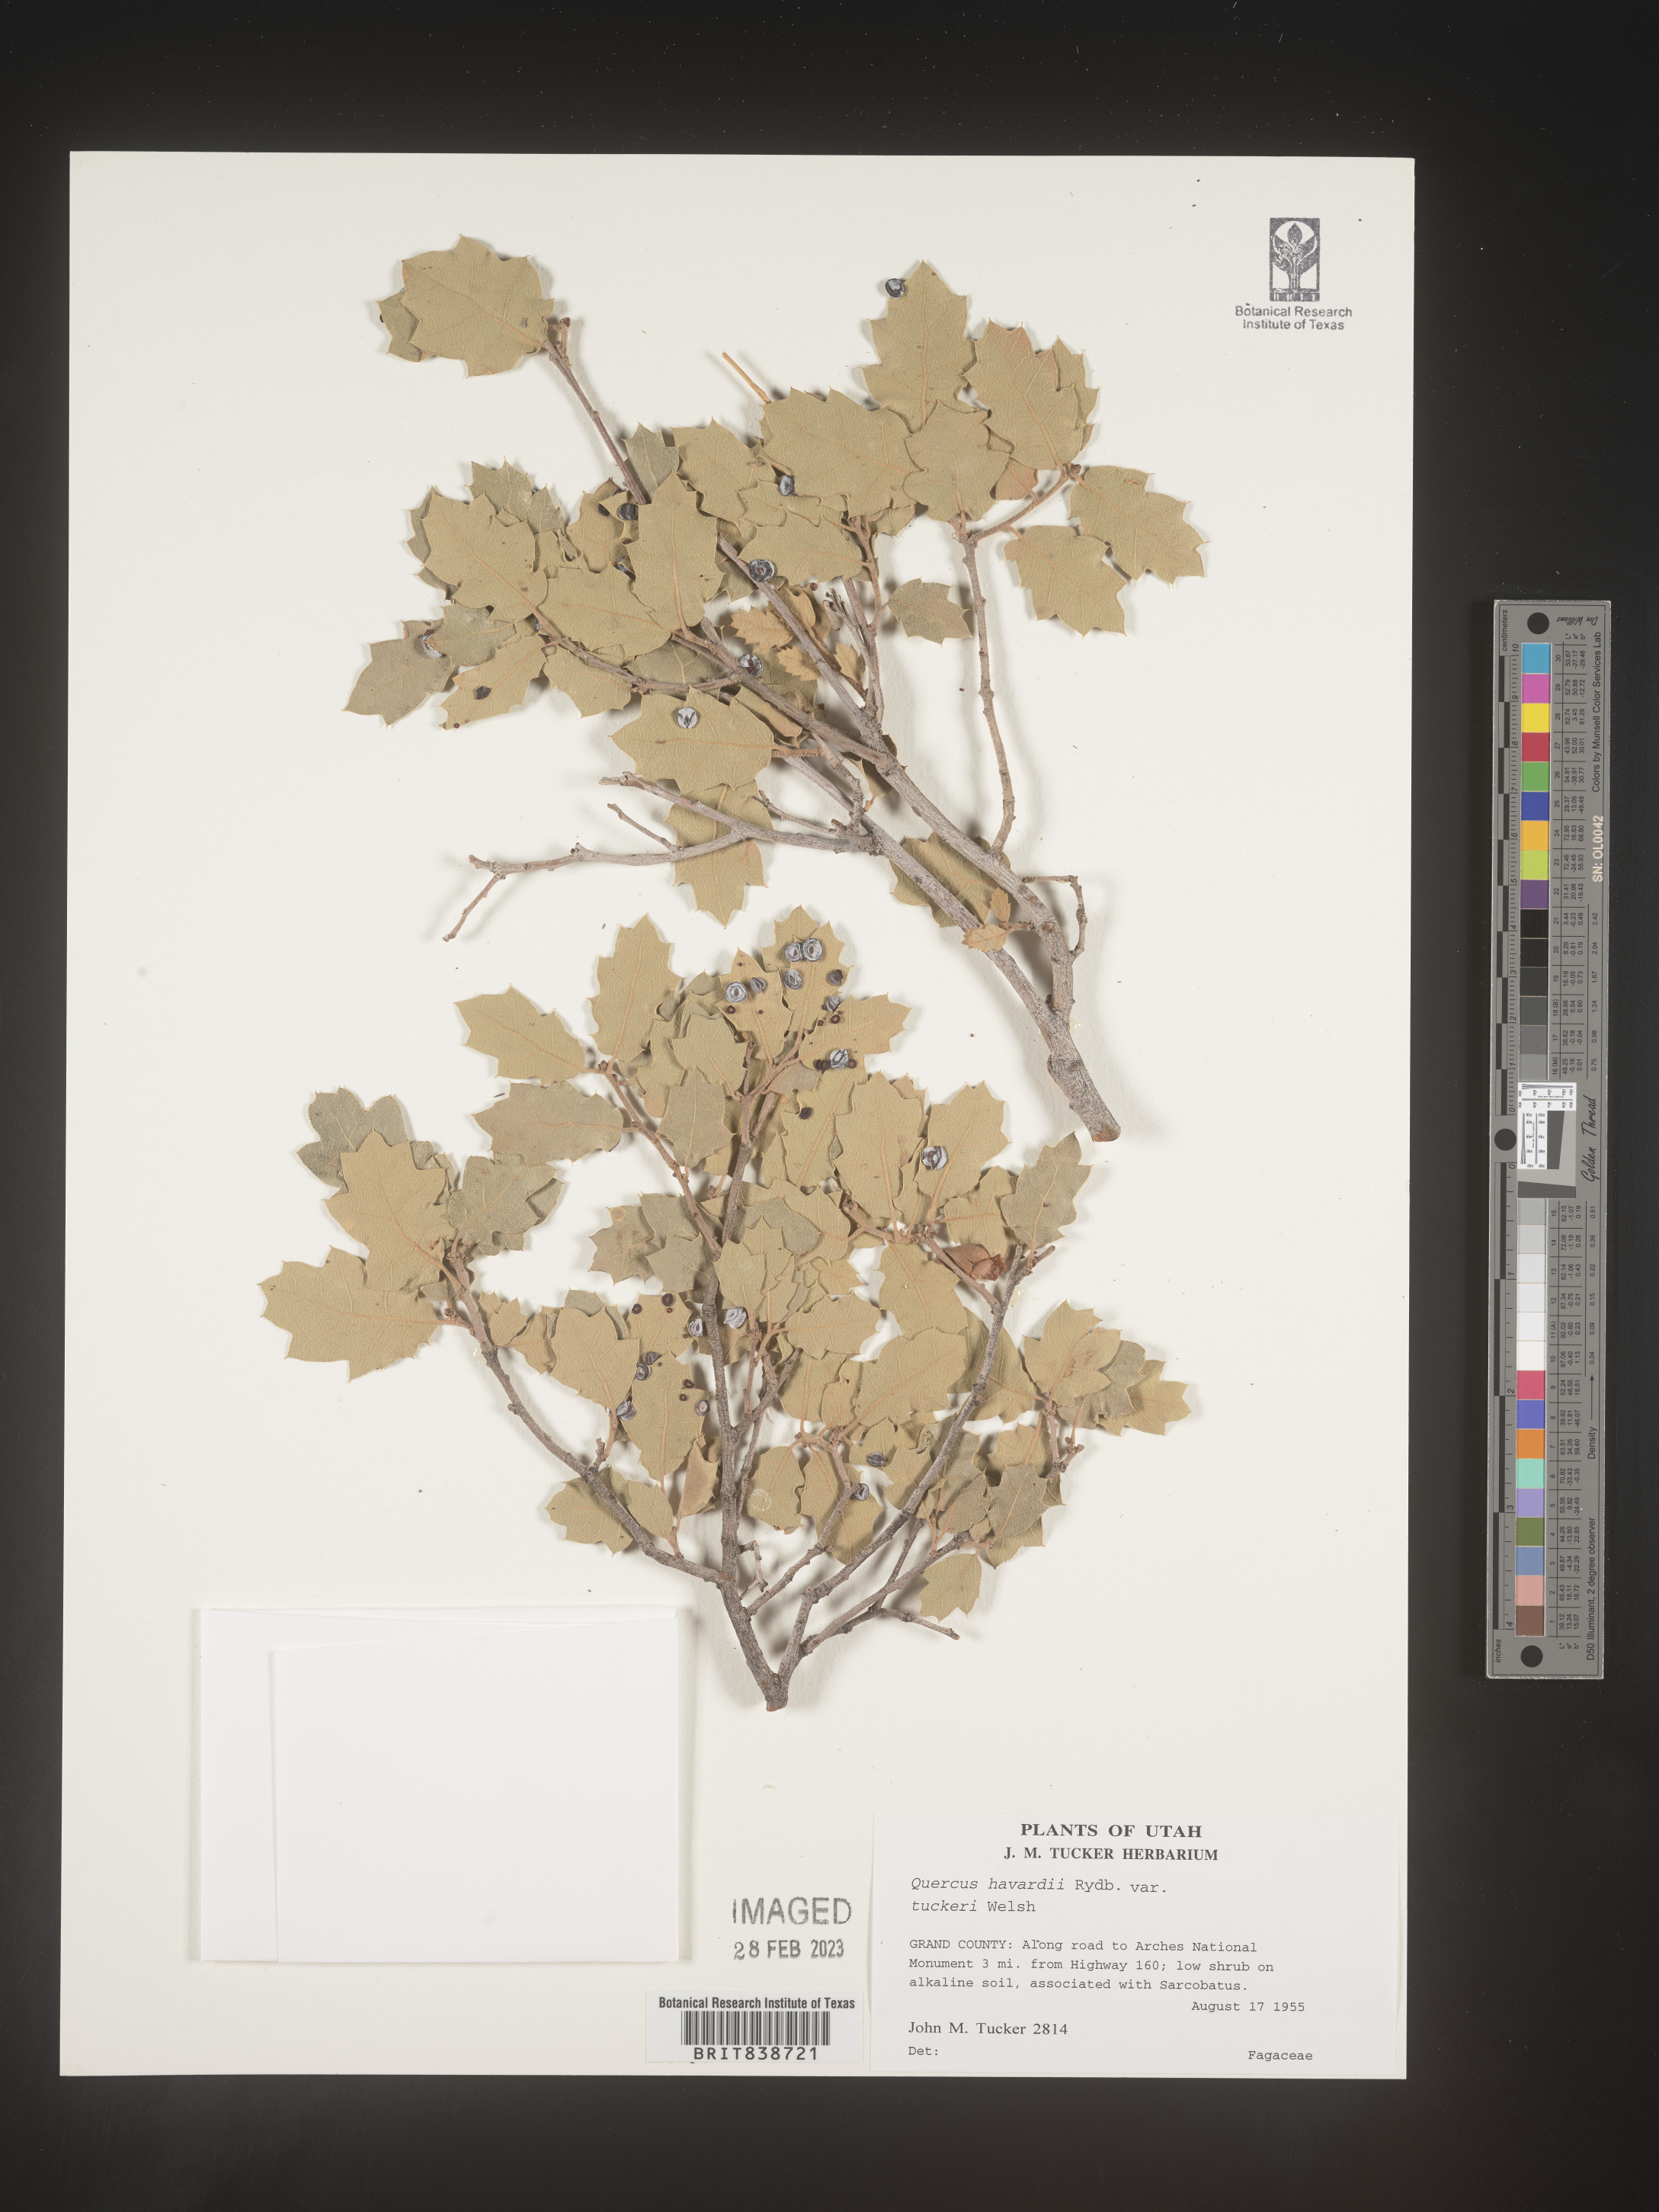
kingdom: Plantae
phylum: Tracheophyta
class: Magnoliopsida
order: Fagales
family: Fagaceae
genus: Quercus
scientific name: Quercus havardii
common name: Shinnery oak
